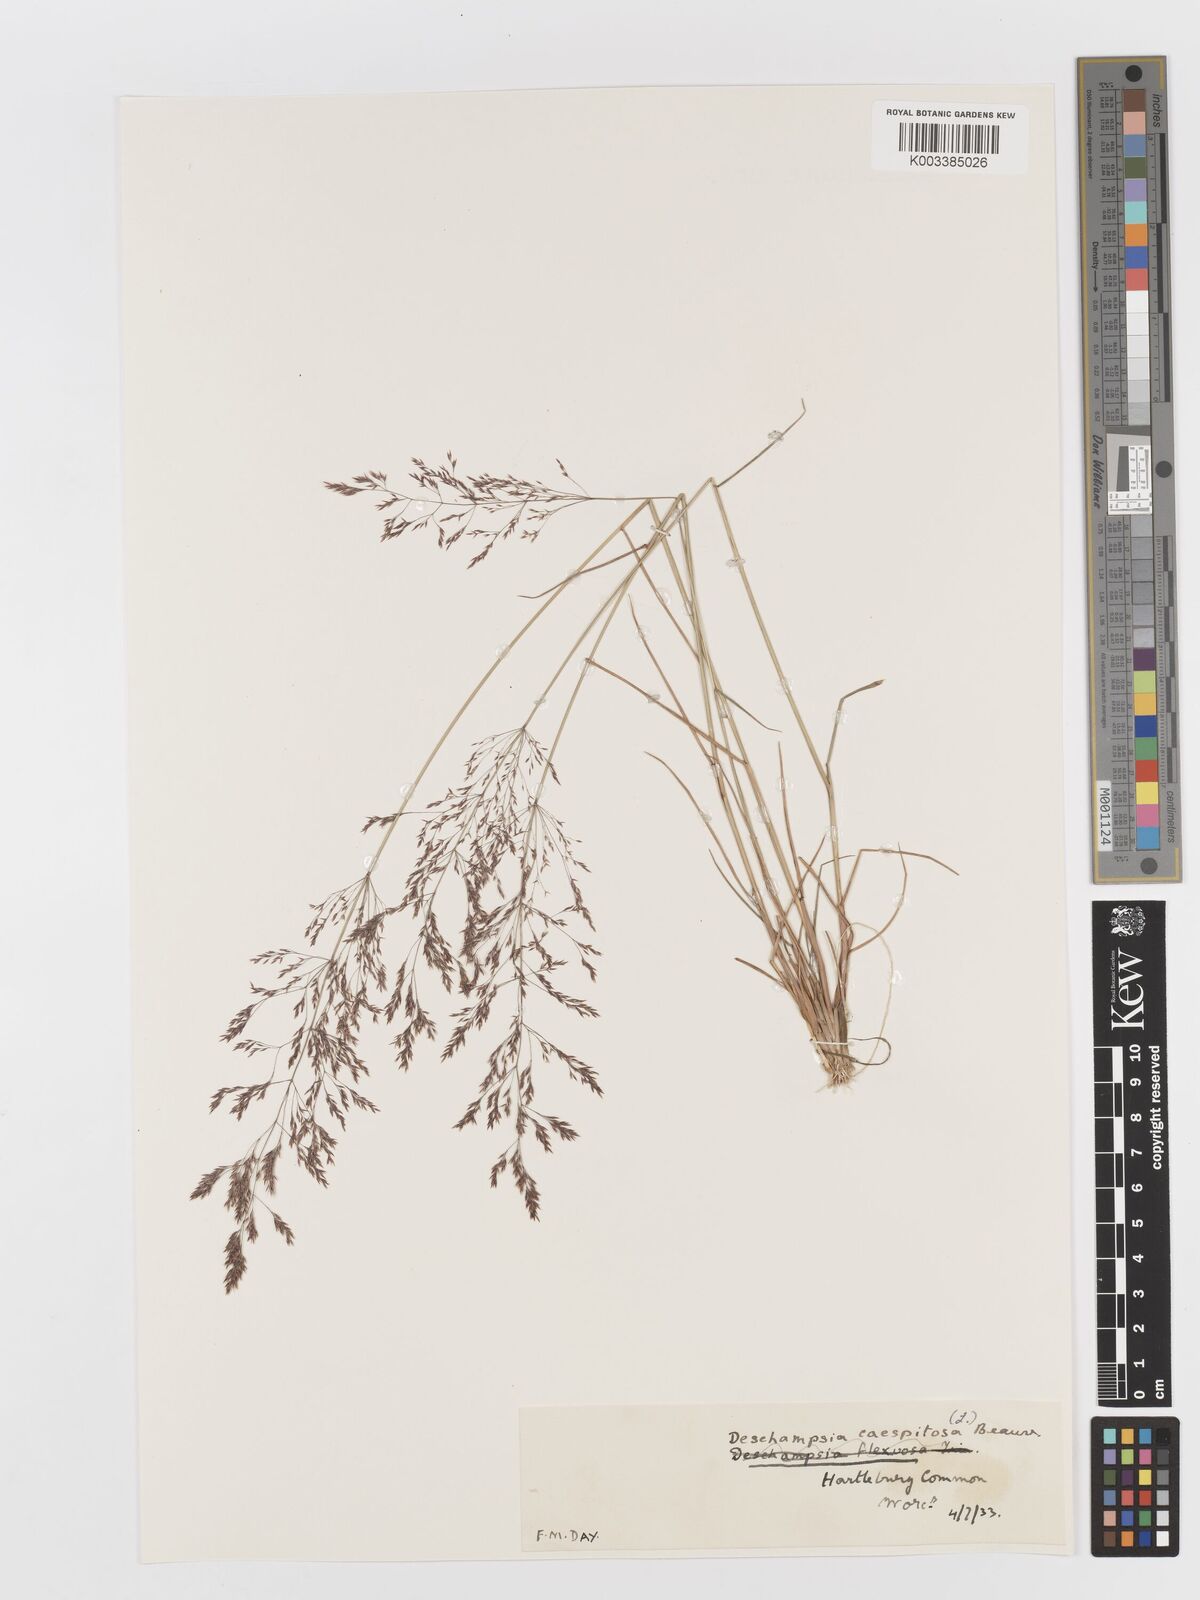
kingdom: Plantae
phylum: Tracheophyta
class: Liliopsida
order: Poales
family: Poaceae
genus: Deschampsia
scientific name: Deschampsia cespitosa
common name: Tufted hair-grass
